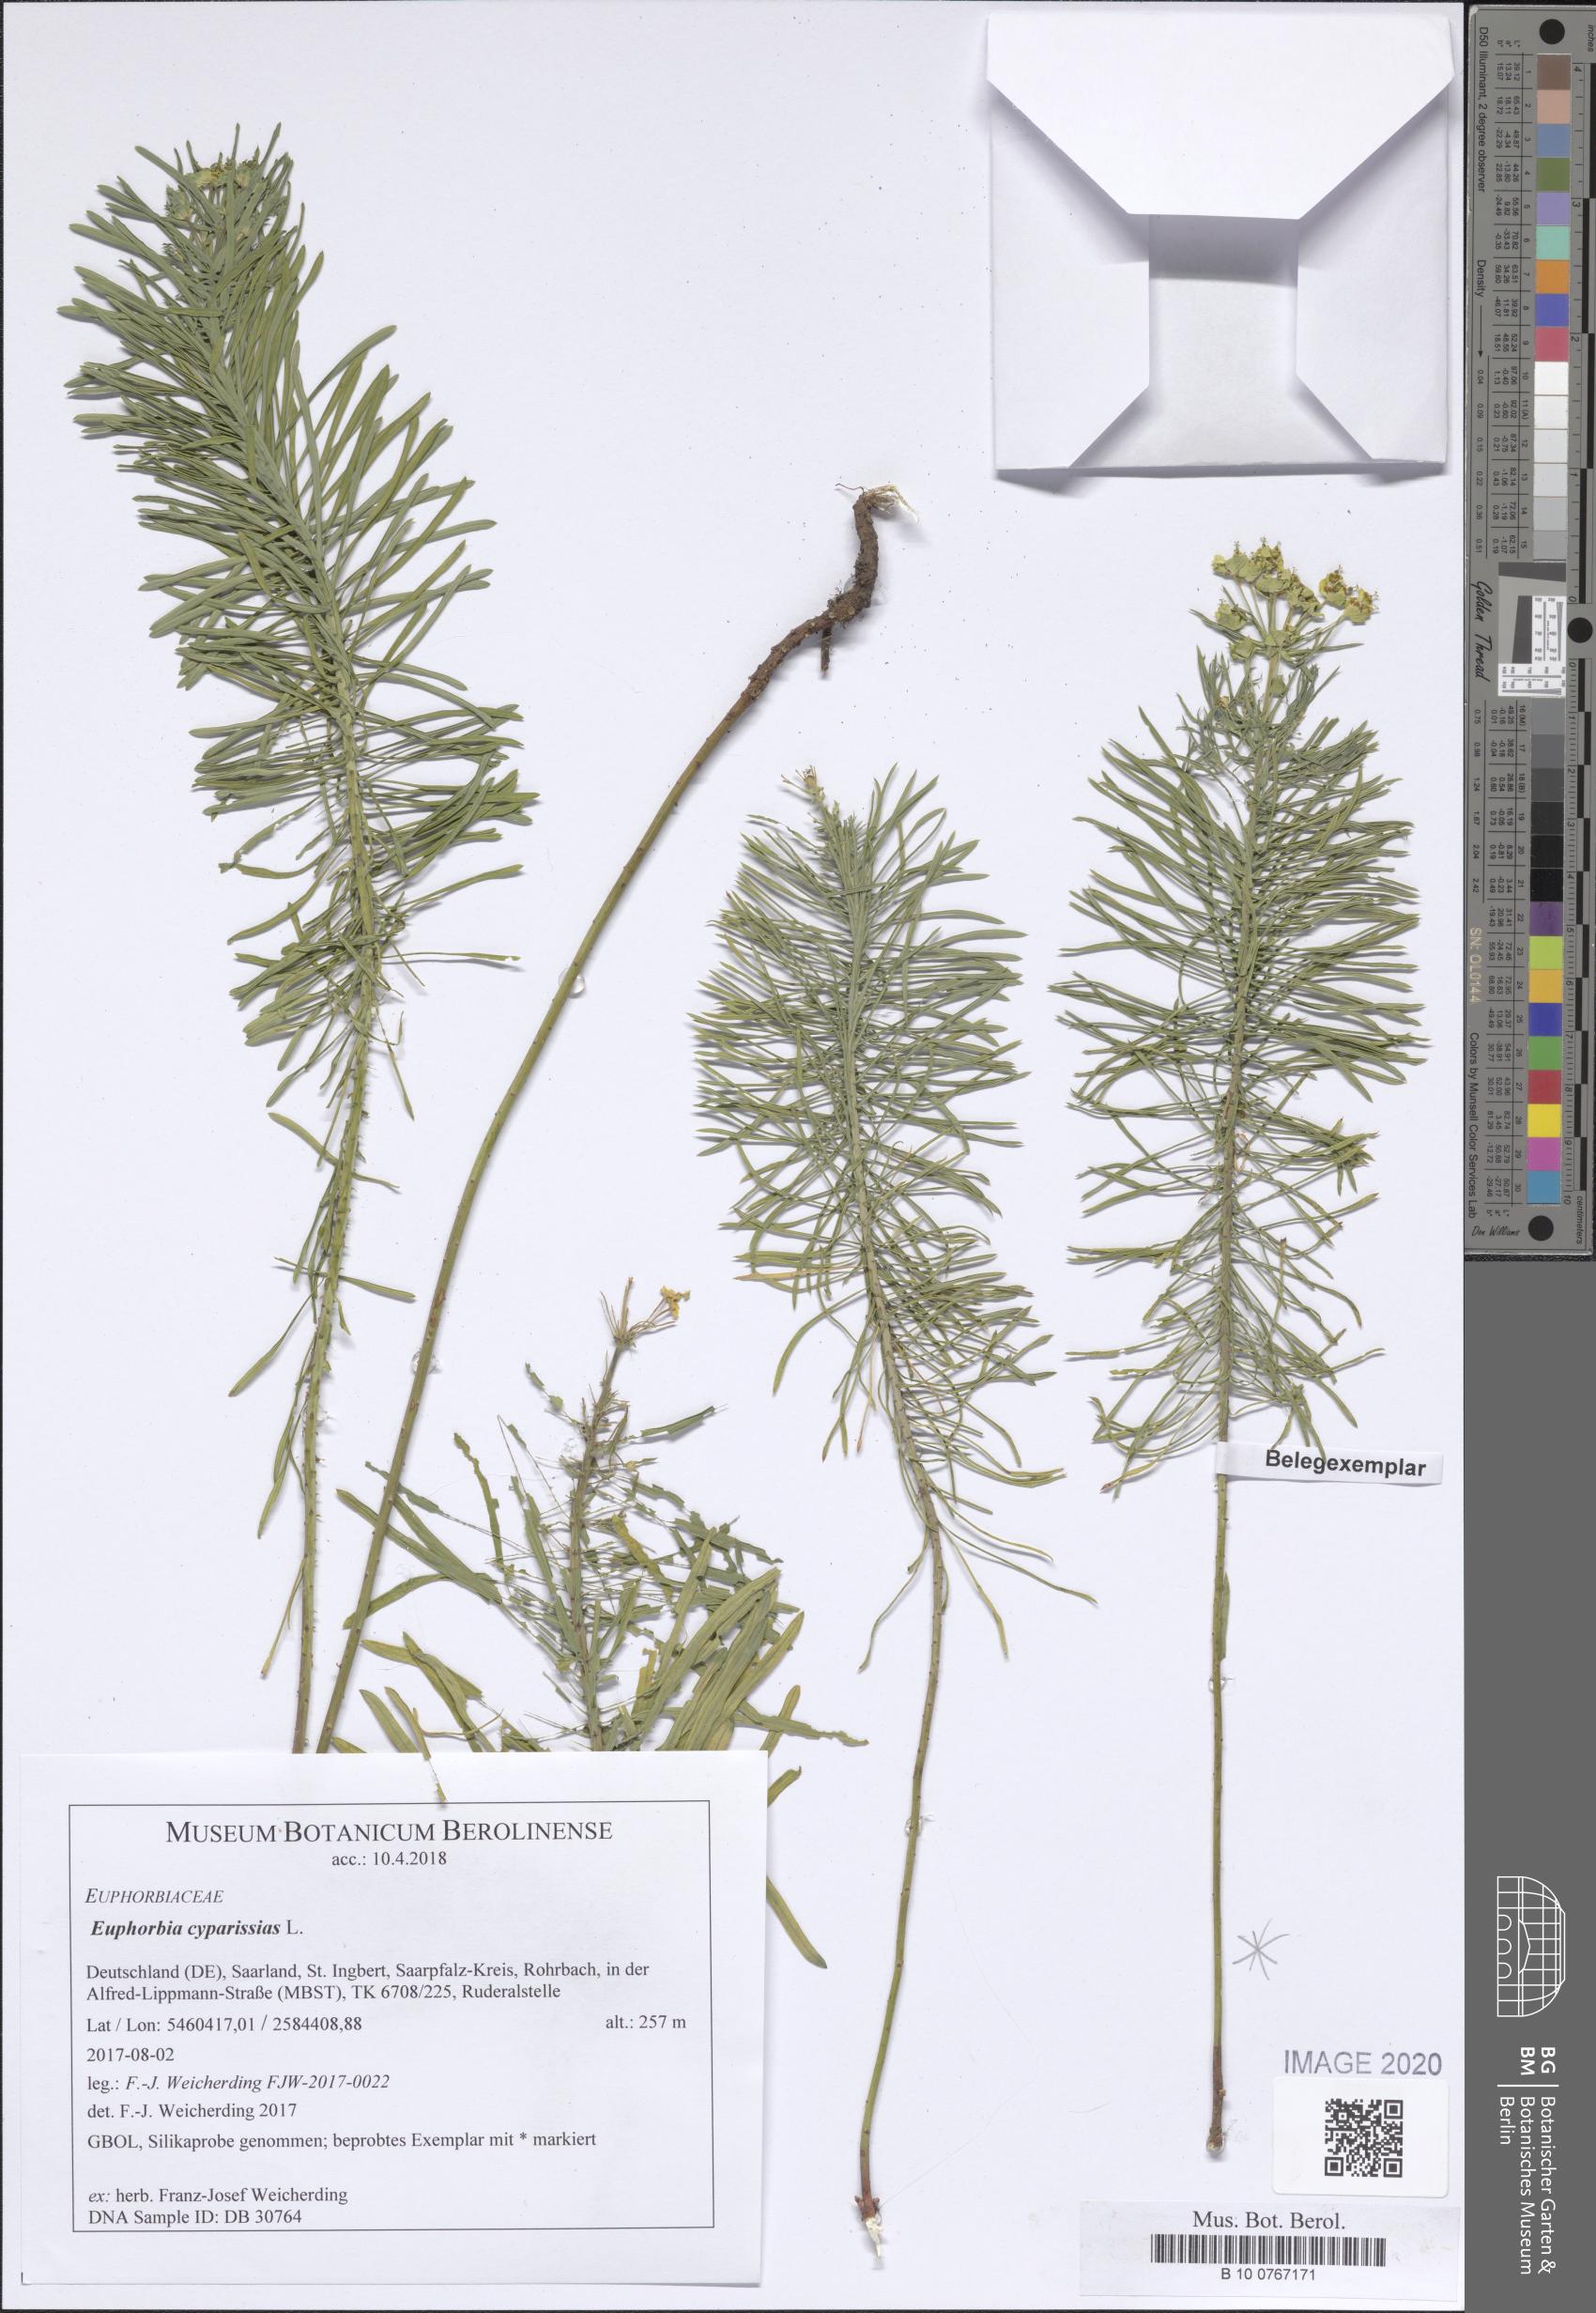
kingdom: Plantae
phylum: Tracheophyta
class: Magnoliopsida
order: Malpighiales
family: Euphorbiaceae
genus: Euphorbia
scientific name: Euphorbia cyparissias
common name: Cypress spurge
